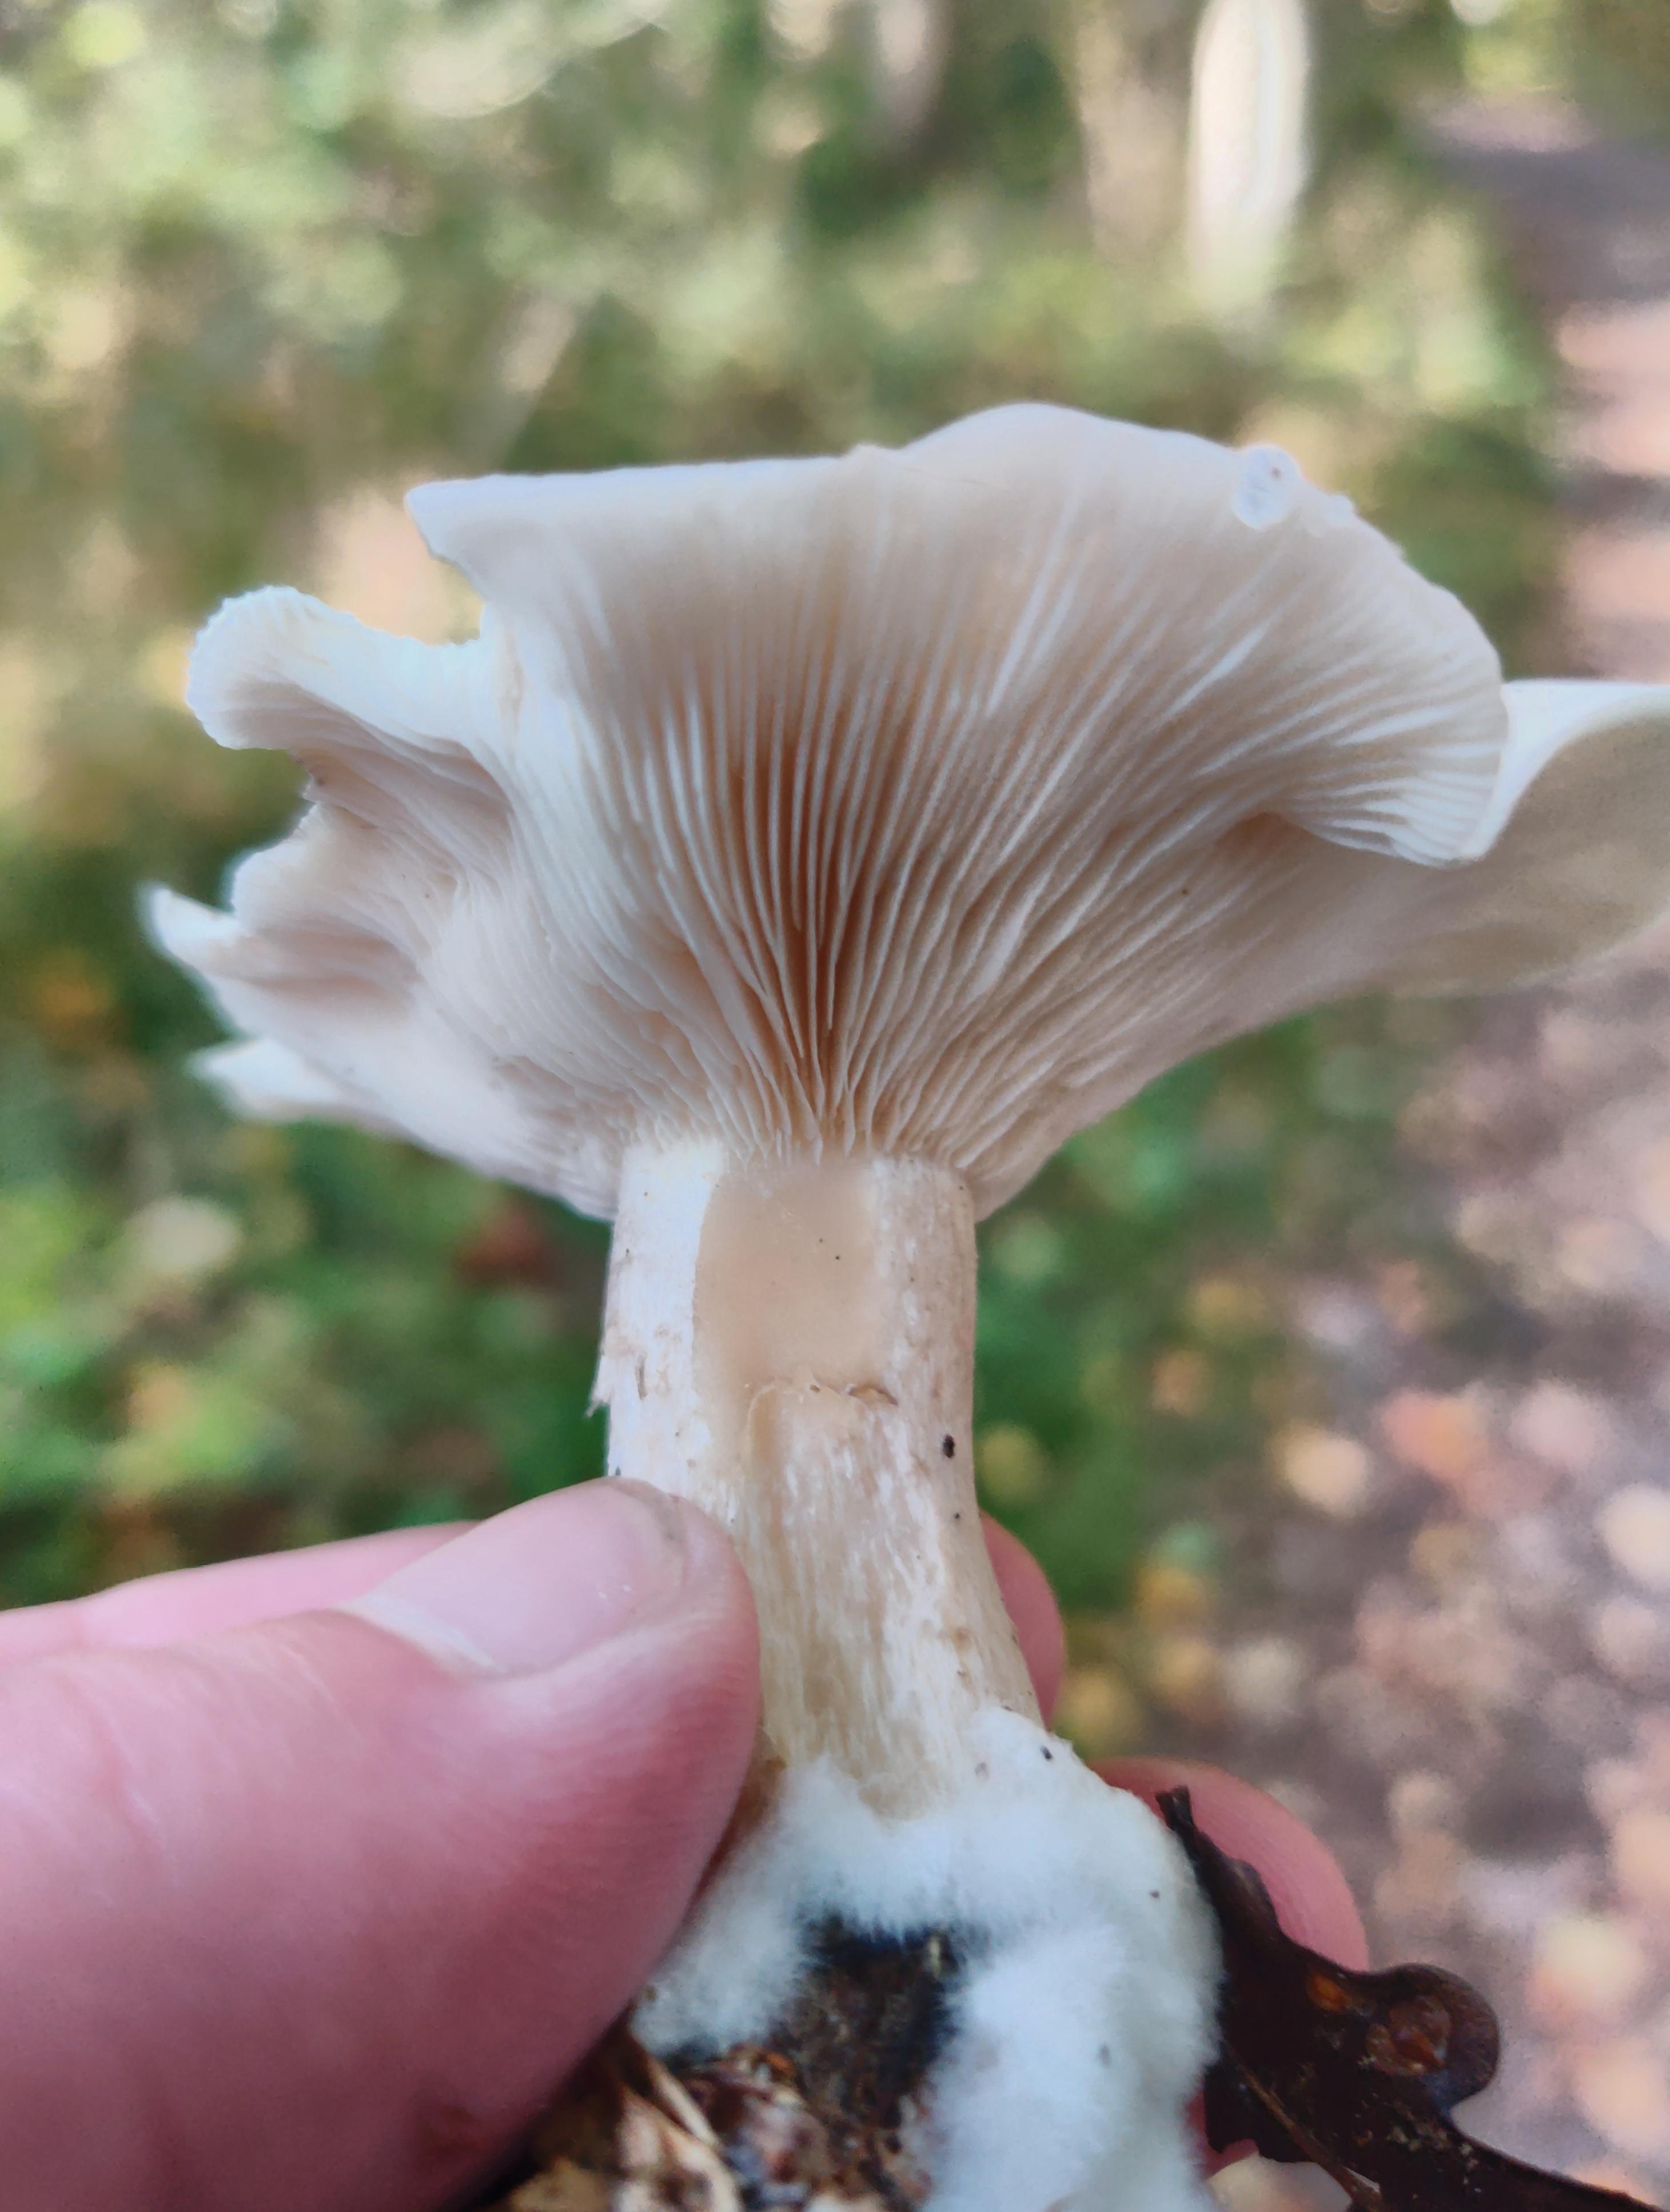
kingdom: Fungi
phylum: Basidiomycota
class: Agaricomycetes
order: Agaricales
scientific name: Agaricales
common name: champignonordenen
